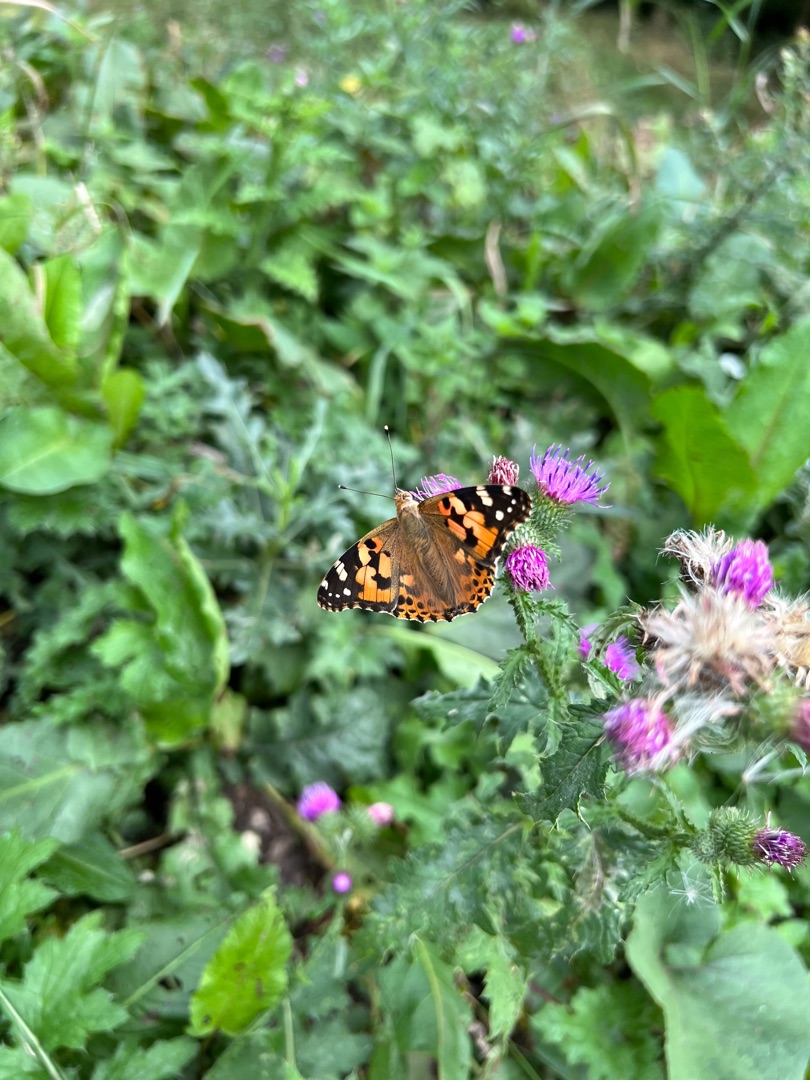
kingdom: Animalia
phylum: Arthropoda
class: Insecta
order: Lepidoptera
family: Nymphalidae
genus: Vanessa
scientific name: Vanessa cardui
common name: Tidselsommerfugl
